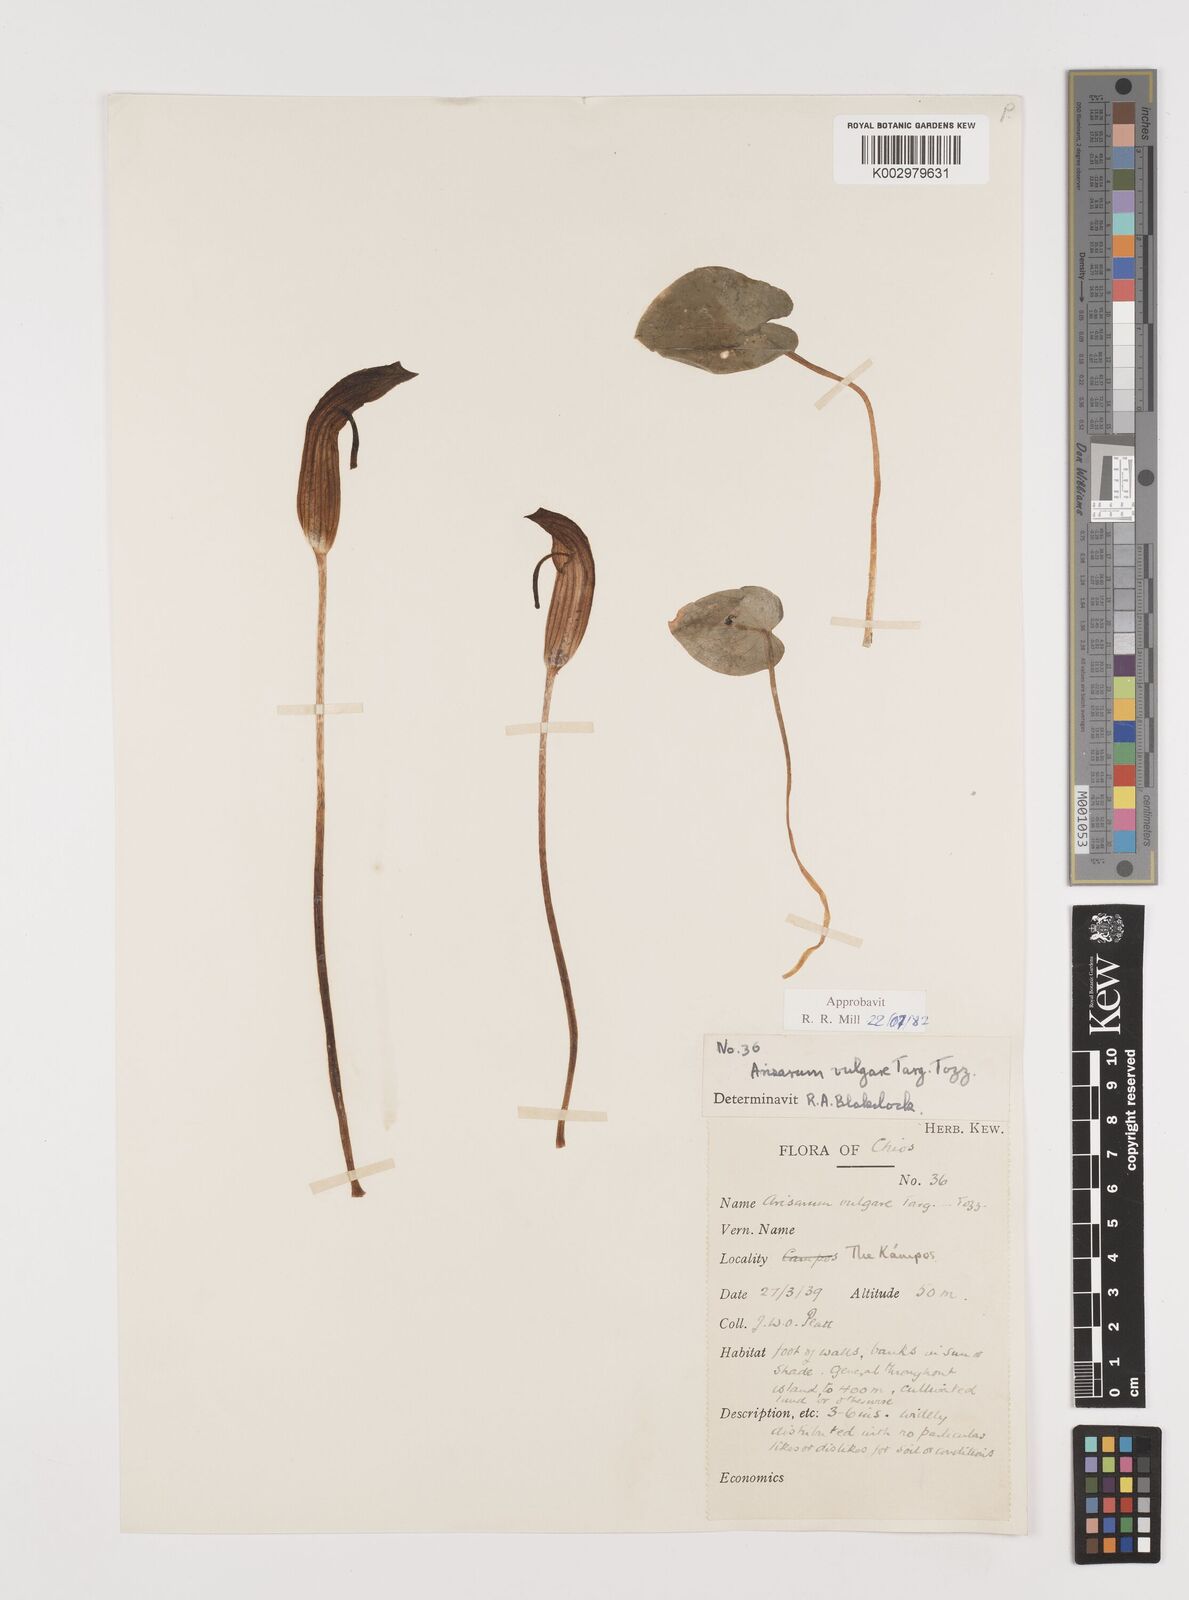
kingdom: Plantae
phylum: Tracheophyta
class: Liliopsida
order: Alismatales
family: Araceae
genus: Arisarum
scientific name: Arisarum vulgare
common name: Common arisarum
